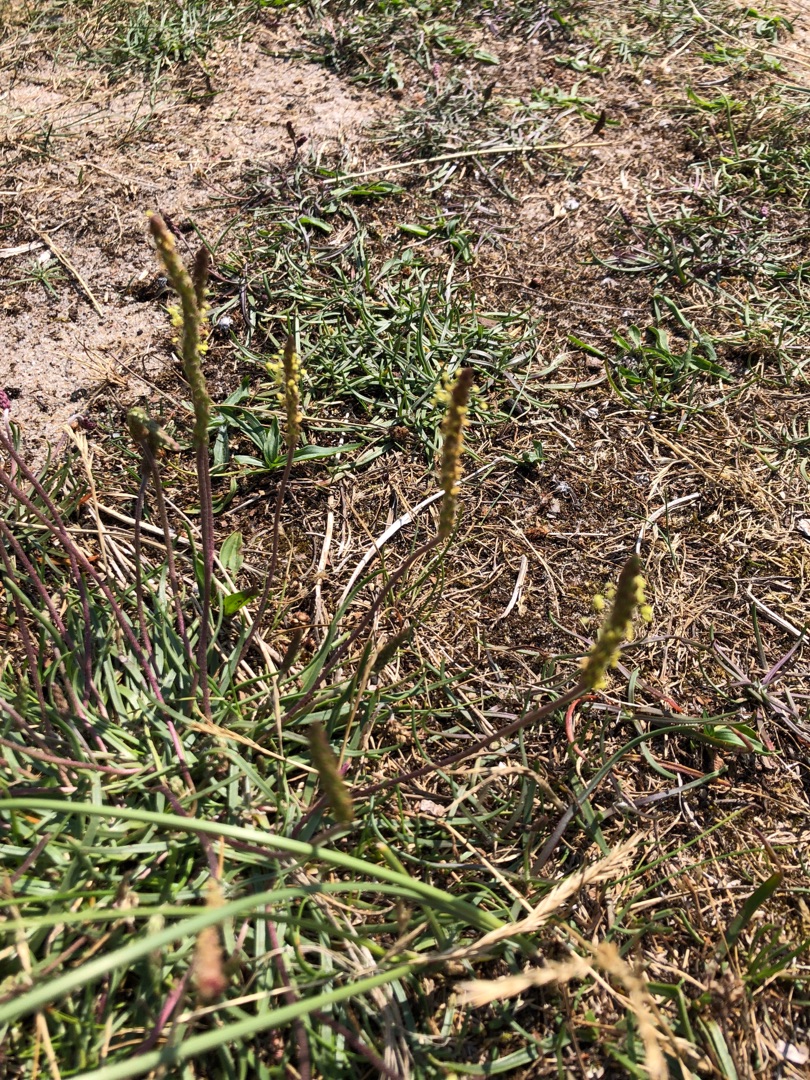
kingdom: Plantae
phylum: Tracheophyta
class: Magnoliopsida
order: Lamiales
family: Plantaginaceae
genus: Plantago
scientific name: Plantago maritima
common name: Strand-vejbred
